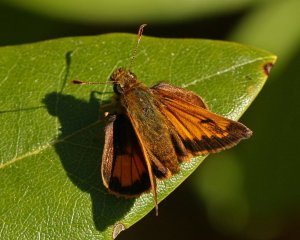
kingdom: Animalia
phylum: Arthropoda
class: Insecta
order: Lepidoptera
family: Hesperiidae
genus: Lon
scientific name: Lon hobomok
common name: Hobomok Skipper
